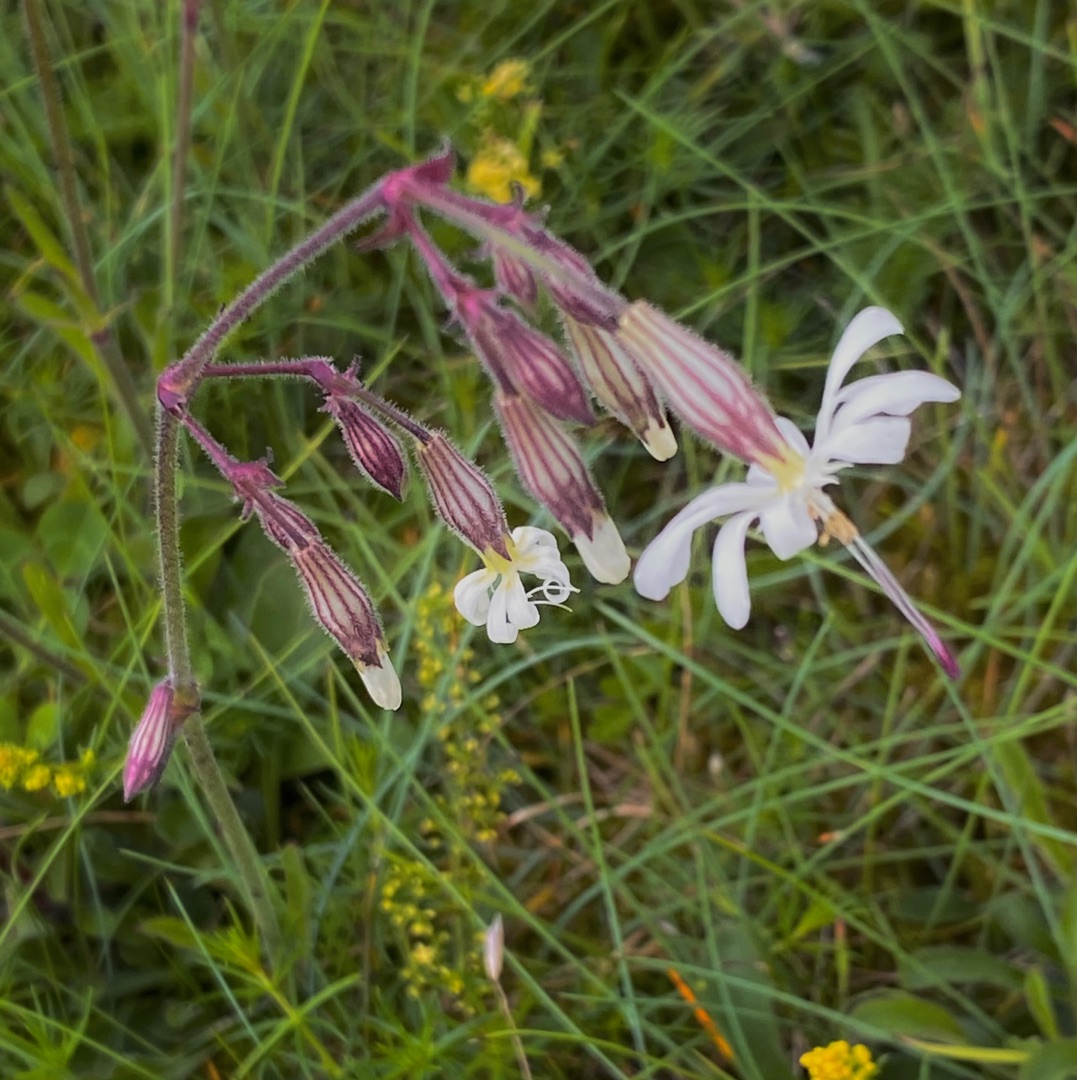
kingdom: Plantae
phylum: Tracheophyta
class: Magnoliopsida
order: Caryophyllales
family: Caryophyllaceae
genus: Silene
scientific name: Silene nutans
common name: Nikkende limurt
